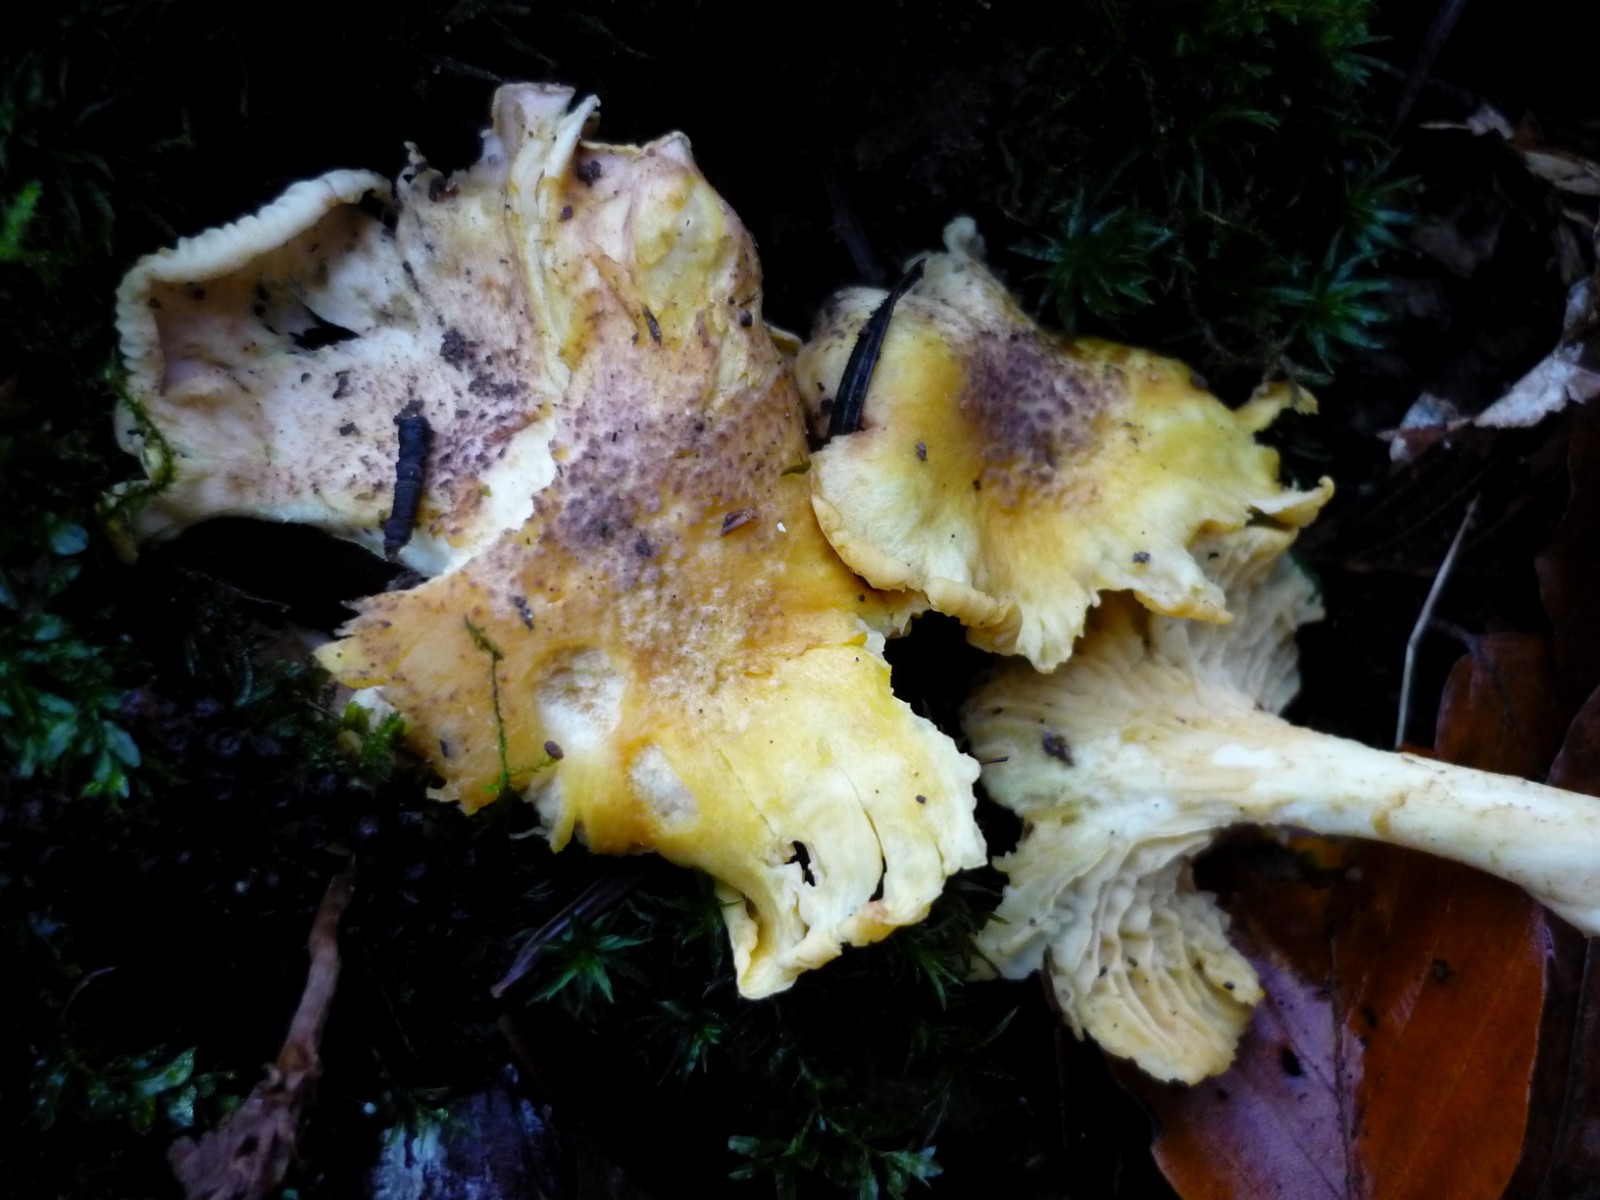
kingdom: Fungi
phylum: Basidiomycota
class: Agaricomycetes
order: Cantharellales
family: Hydnaceae
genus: Cantharellus
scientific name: Cantharellus amethysteus
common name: ametyst-kantarel
